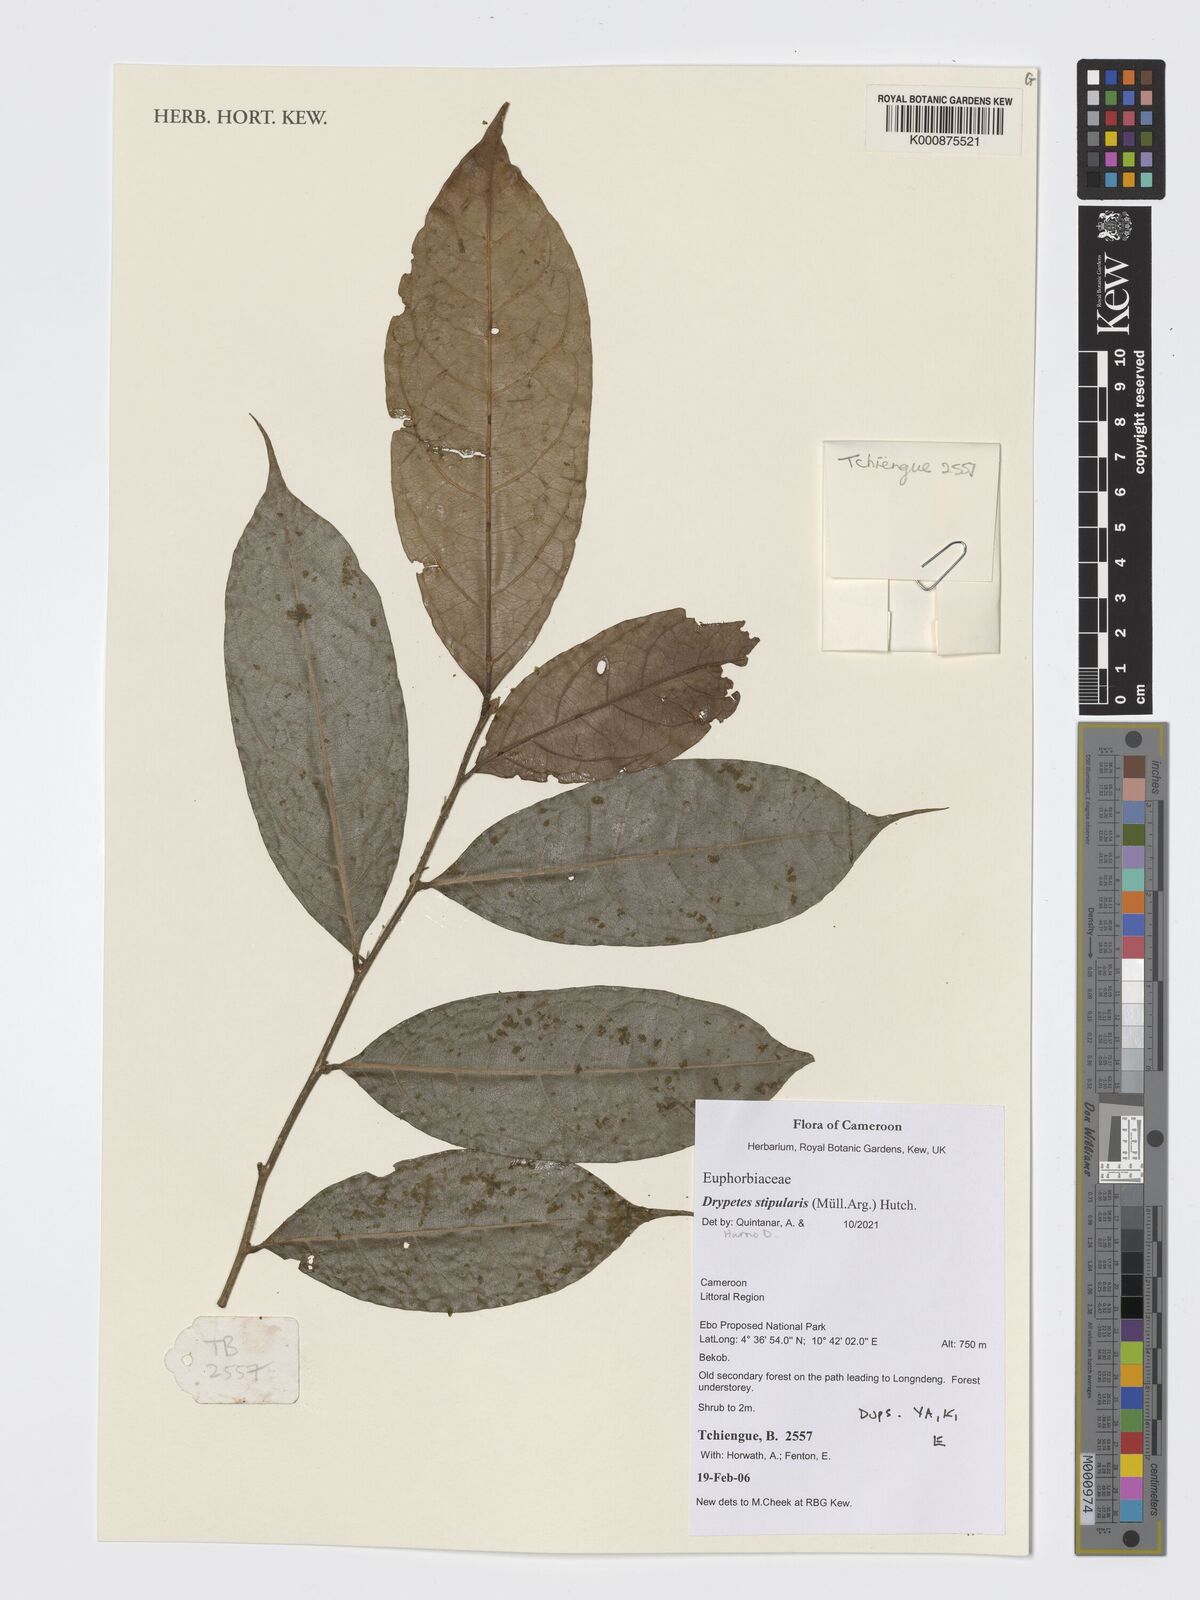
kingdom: Plantae
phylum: Tracheophyta
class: Magnoliopsida
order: Malpighiales
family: Putranjivaceae
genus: Drypetes
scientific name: Drypetes stipularis
